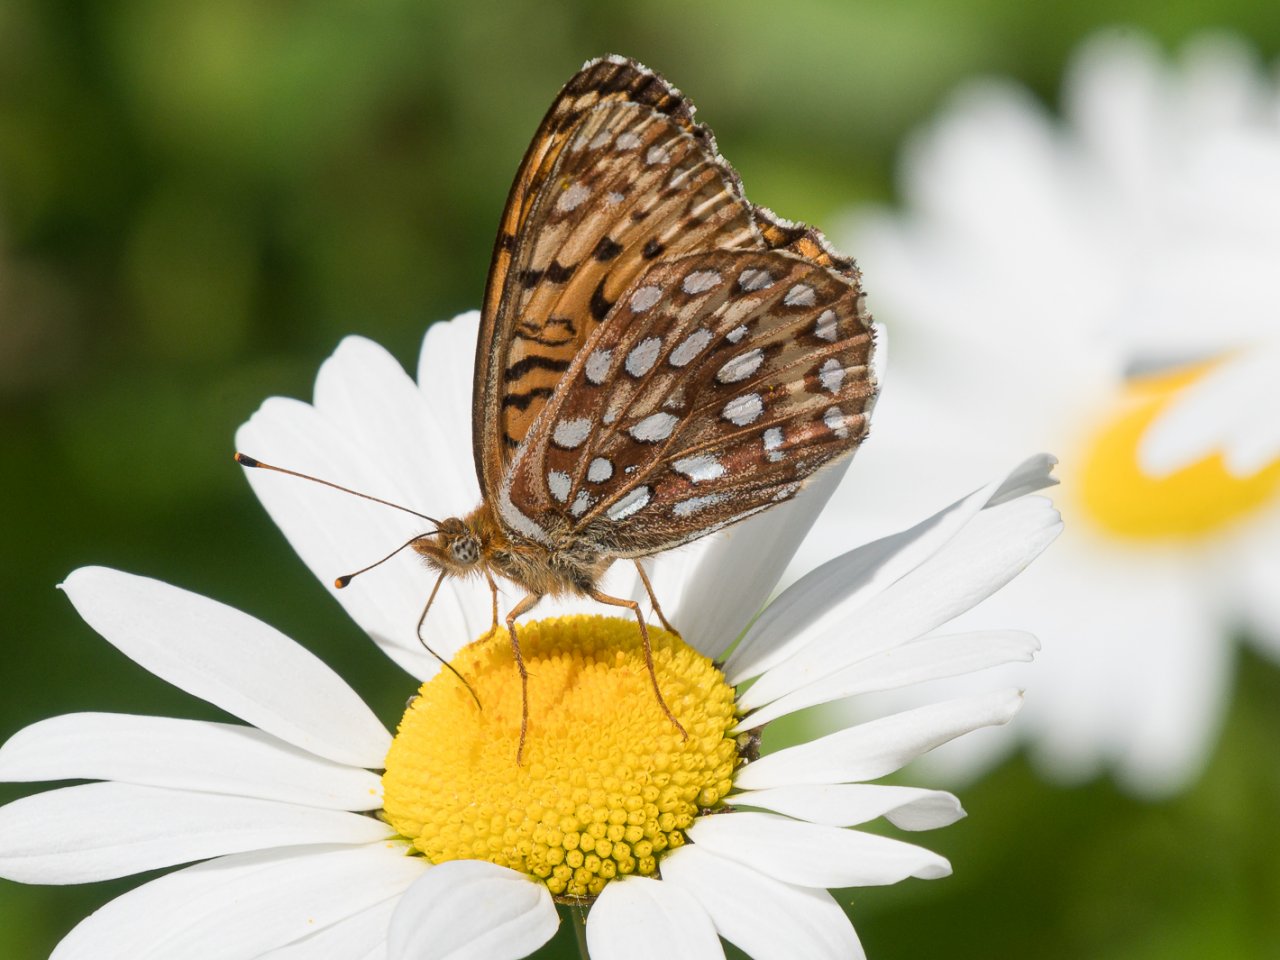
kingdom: Animalia
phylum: Arthropoda
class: Insecta
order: Lepidoptera
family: Nymphalidae
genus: Speyeria
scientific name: Speyeria atlantis
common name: Northwestern Fritillary
